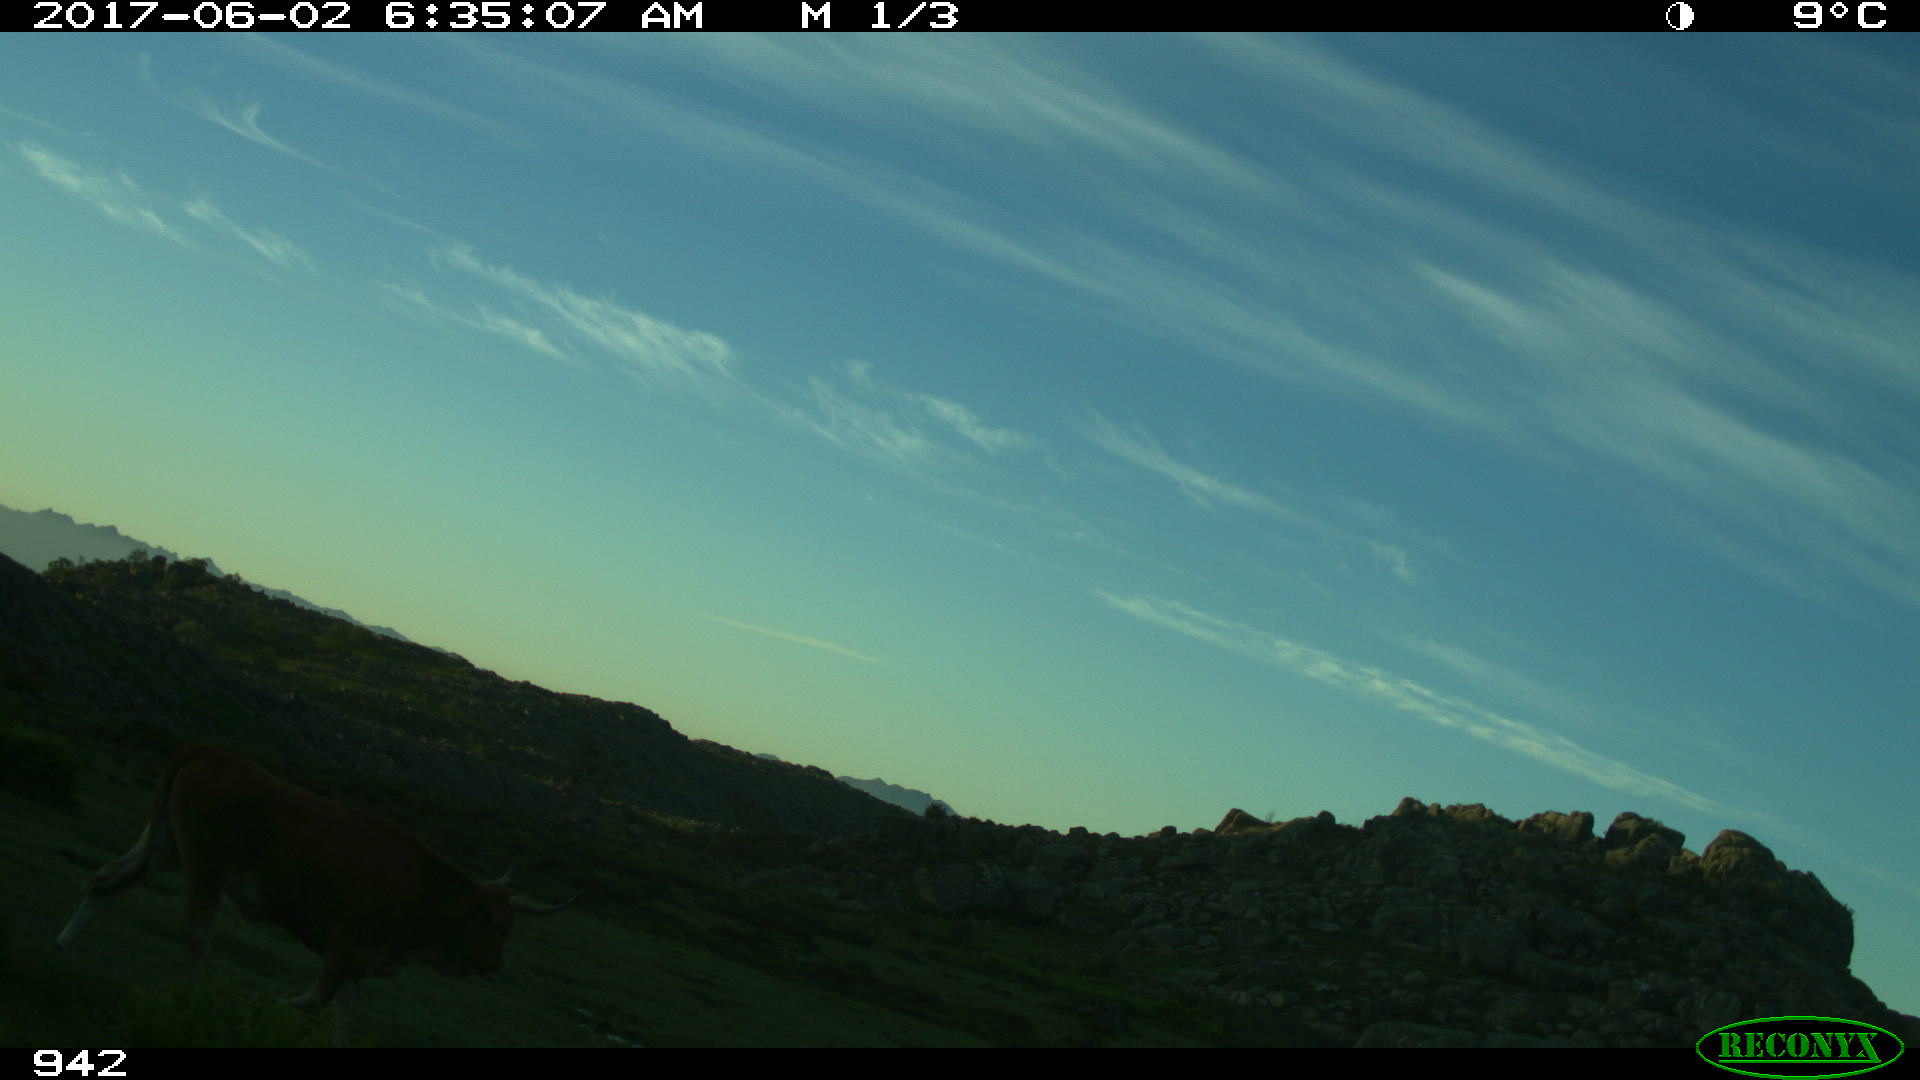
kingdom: Animalia
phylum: Chordata
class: Mammalia
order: Artiodactyla
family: Bovidae
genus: Bos
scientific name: Bos taurus
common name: Domesticated cattle
